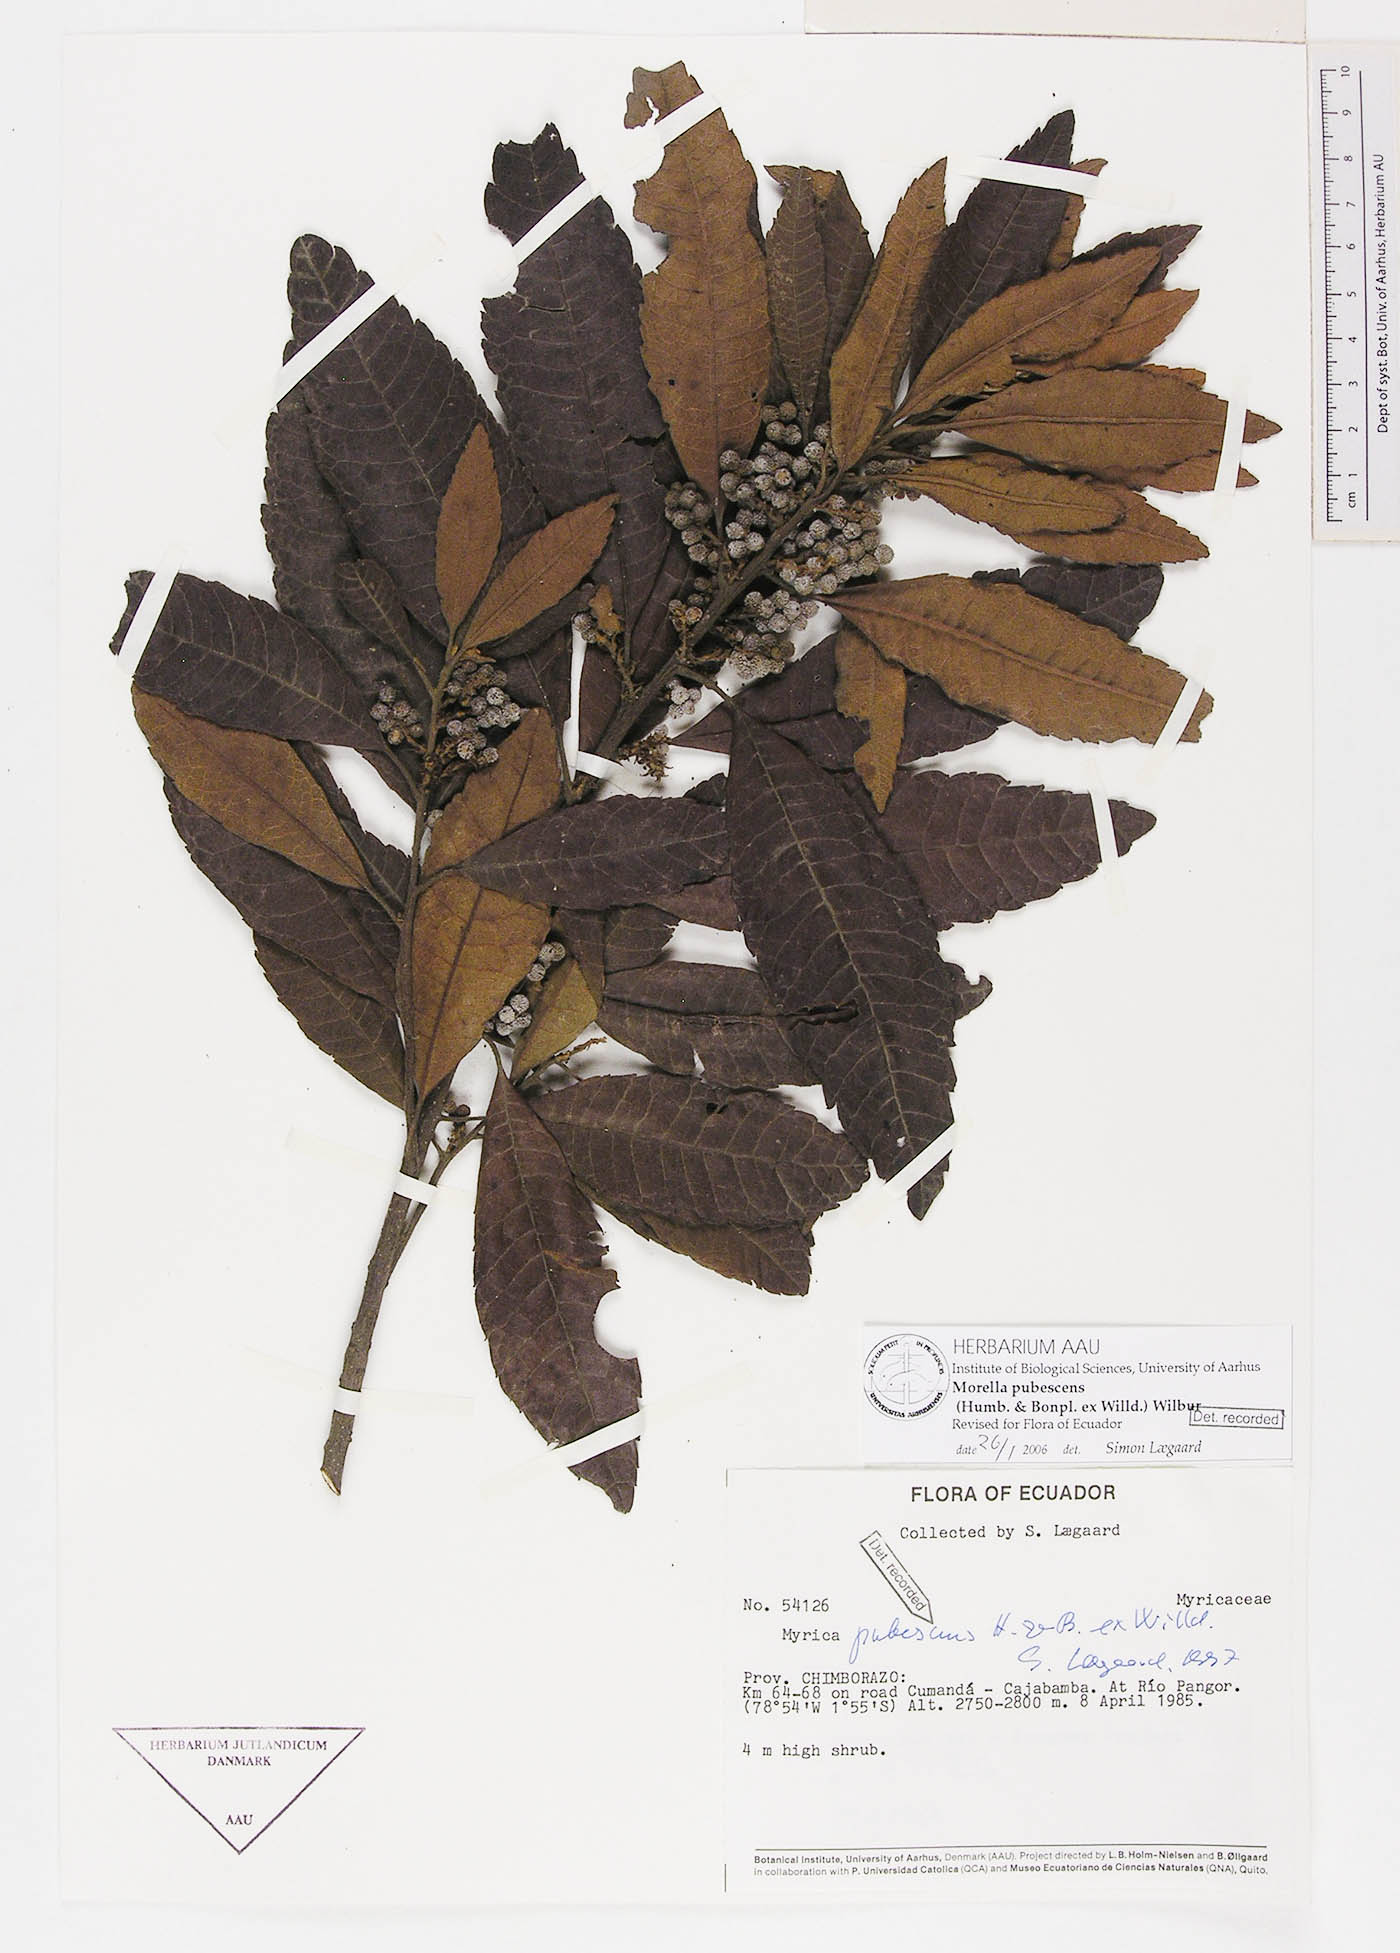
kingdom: Plantae
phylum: Tracheophyta
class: Magnoliopsida
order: Fagales
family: Myricaceae
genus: Morella
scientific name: Morella pubescens
